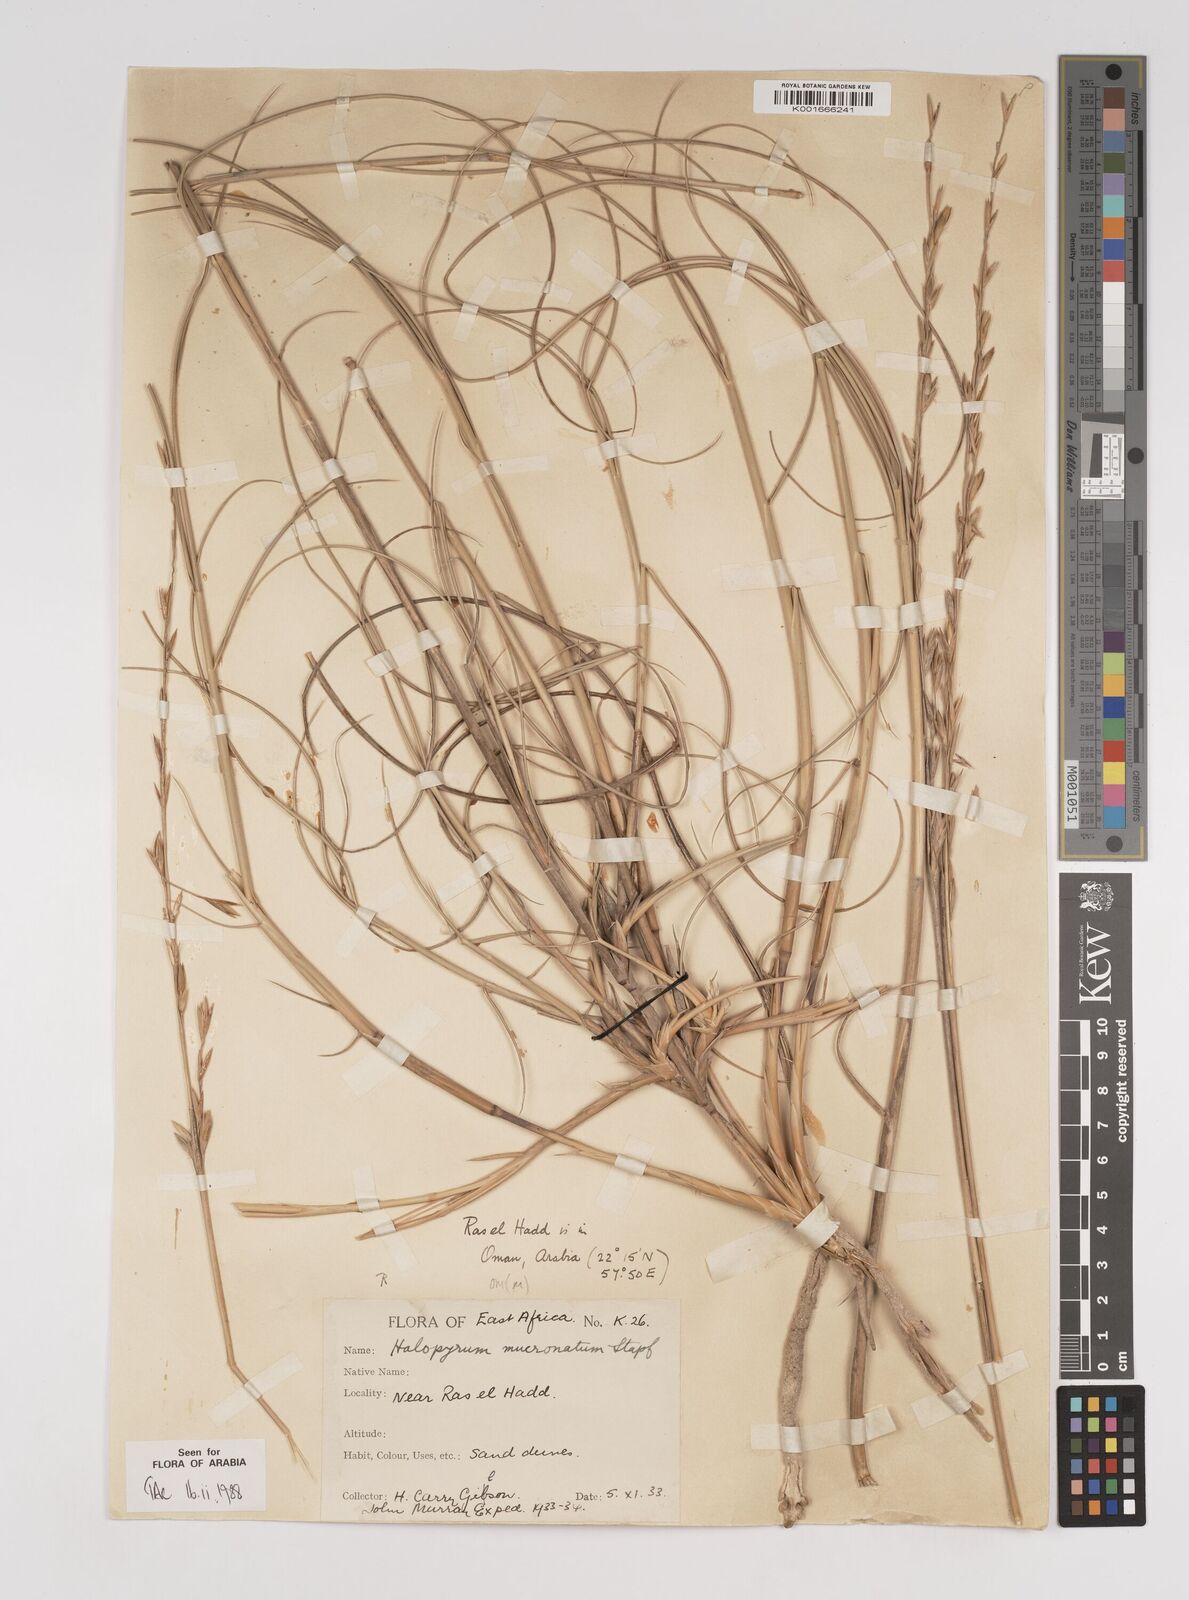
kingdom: Plantae
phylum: Tracheophyta
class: Liliopsida
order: Poales
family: Poaceae
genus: Halopyrum
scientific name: Halopyrum mucronatum
